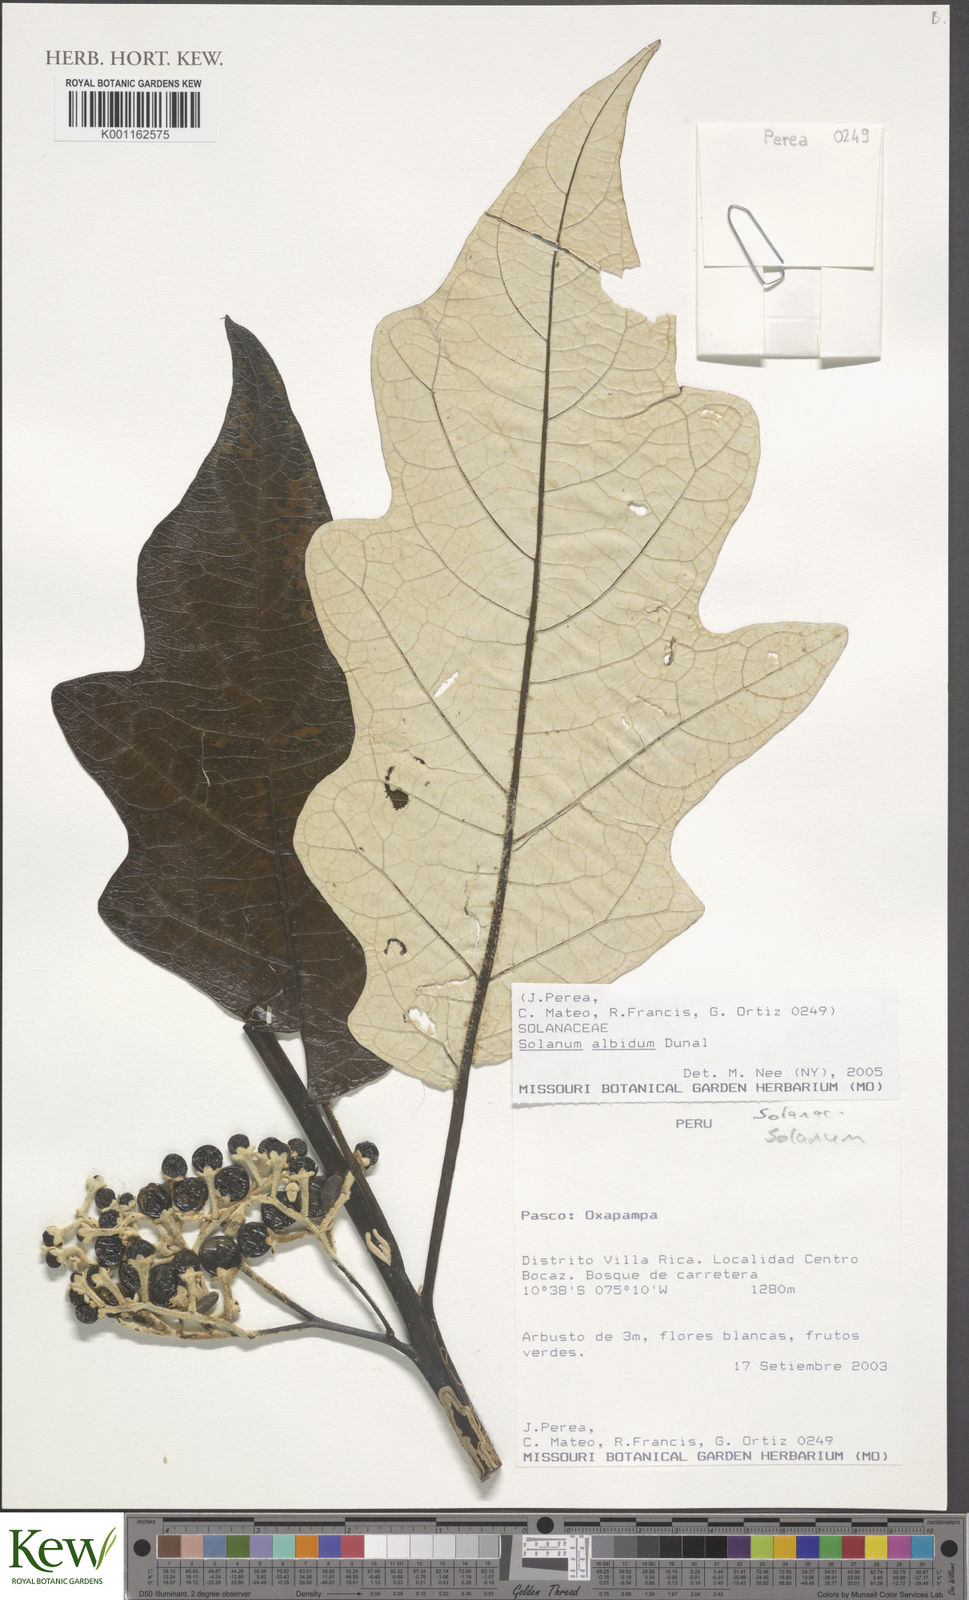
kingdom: Plantae
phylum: Tracheophyta
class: Magnoliopsida
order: Solanales
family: Solanaceae
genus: Solanum
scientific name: Solanum albidum
